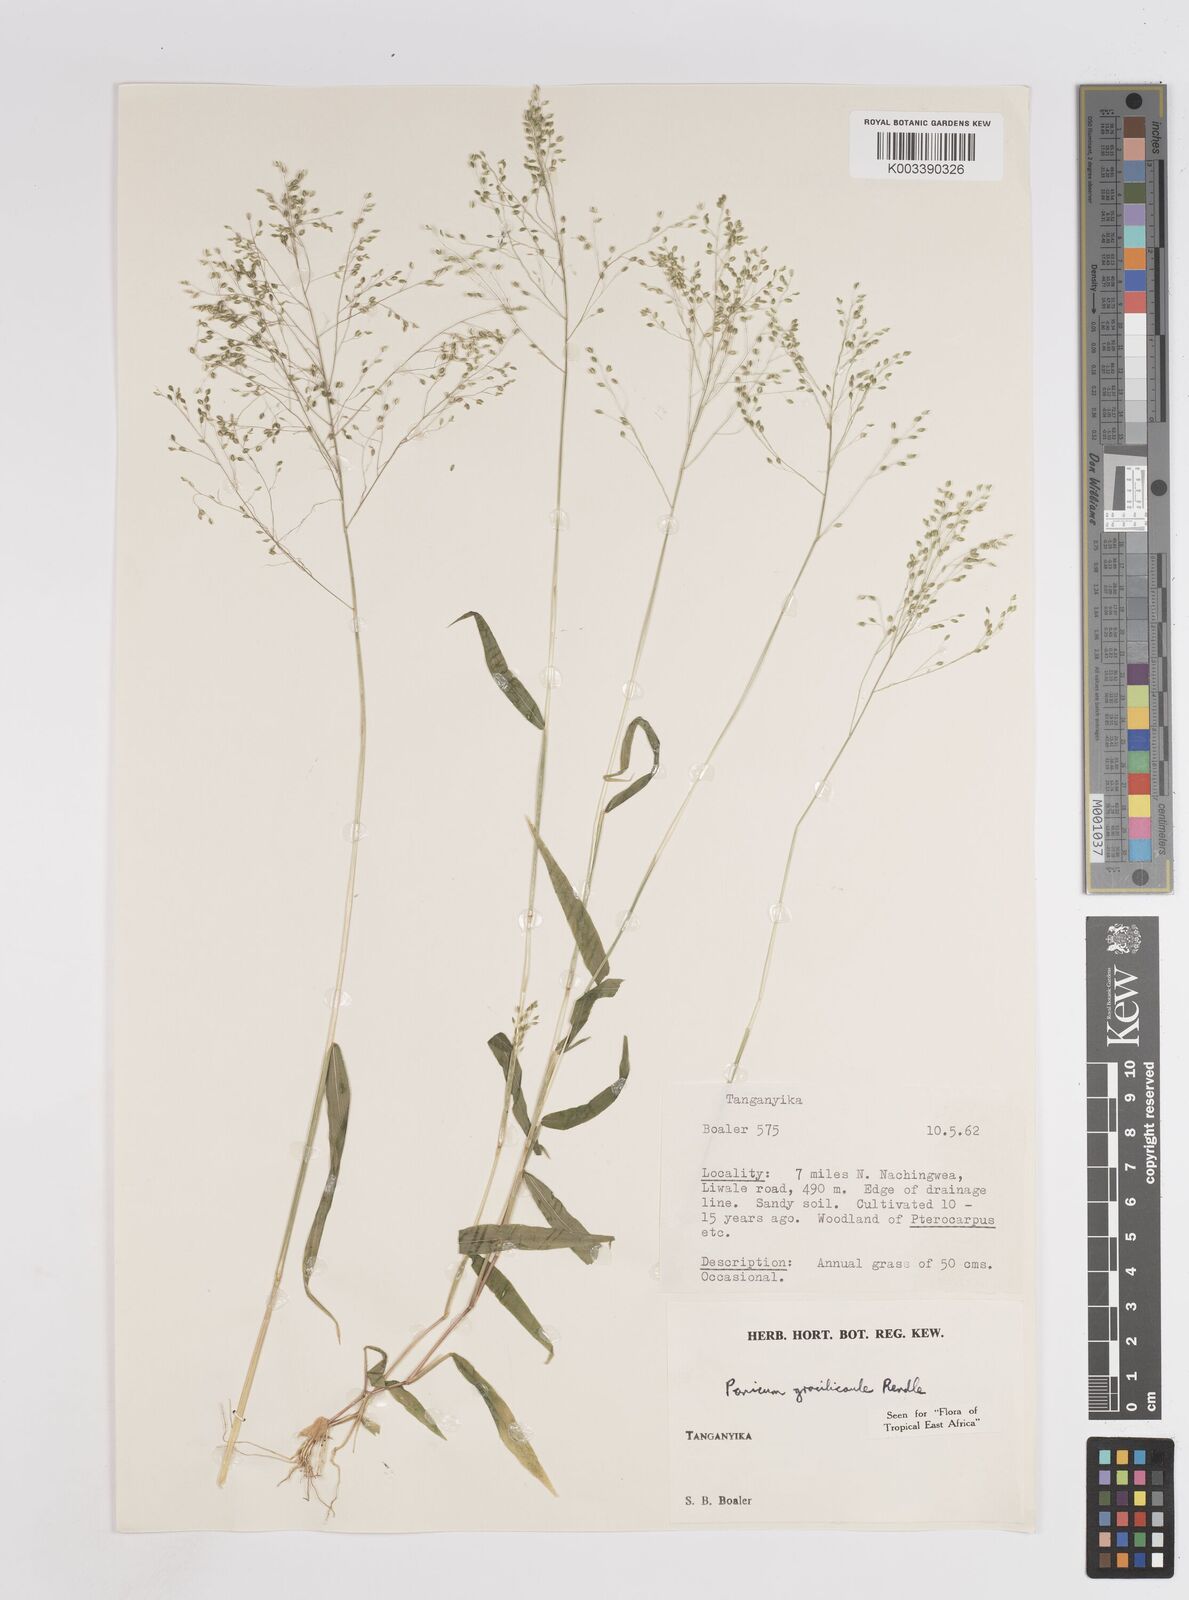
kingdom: Plantae
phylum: Tracheophyta
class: Liliopsida
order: Poales
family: Poaceae
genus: Trichanthecium
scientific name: Trichanthecium gracilicaule
